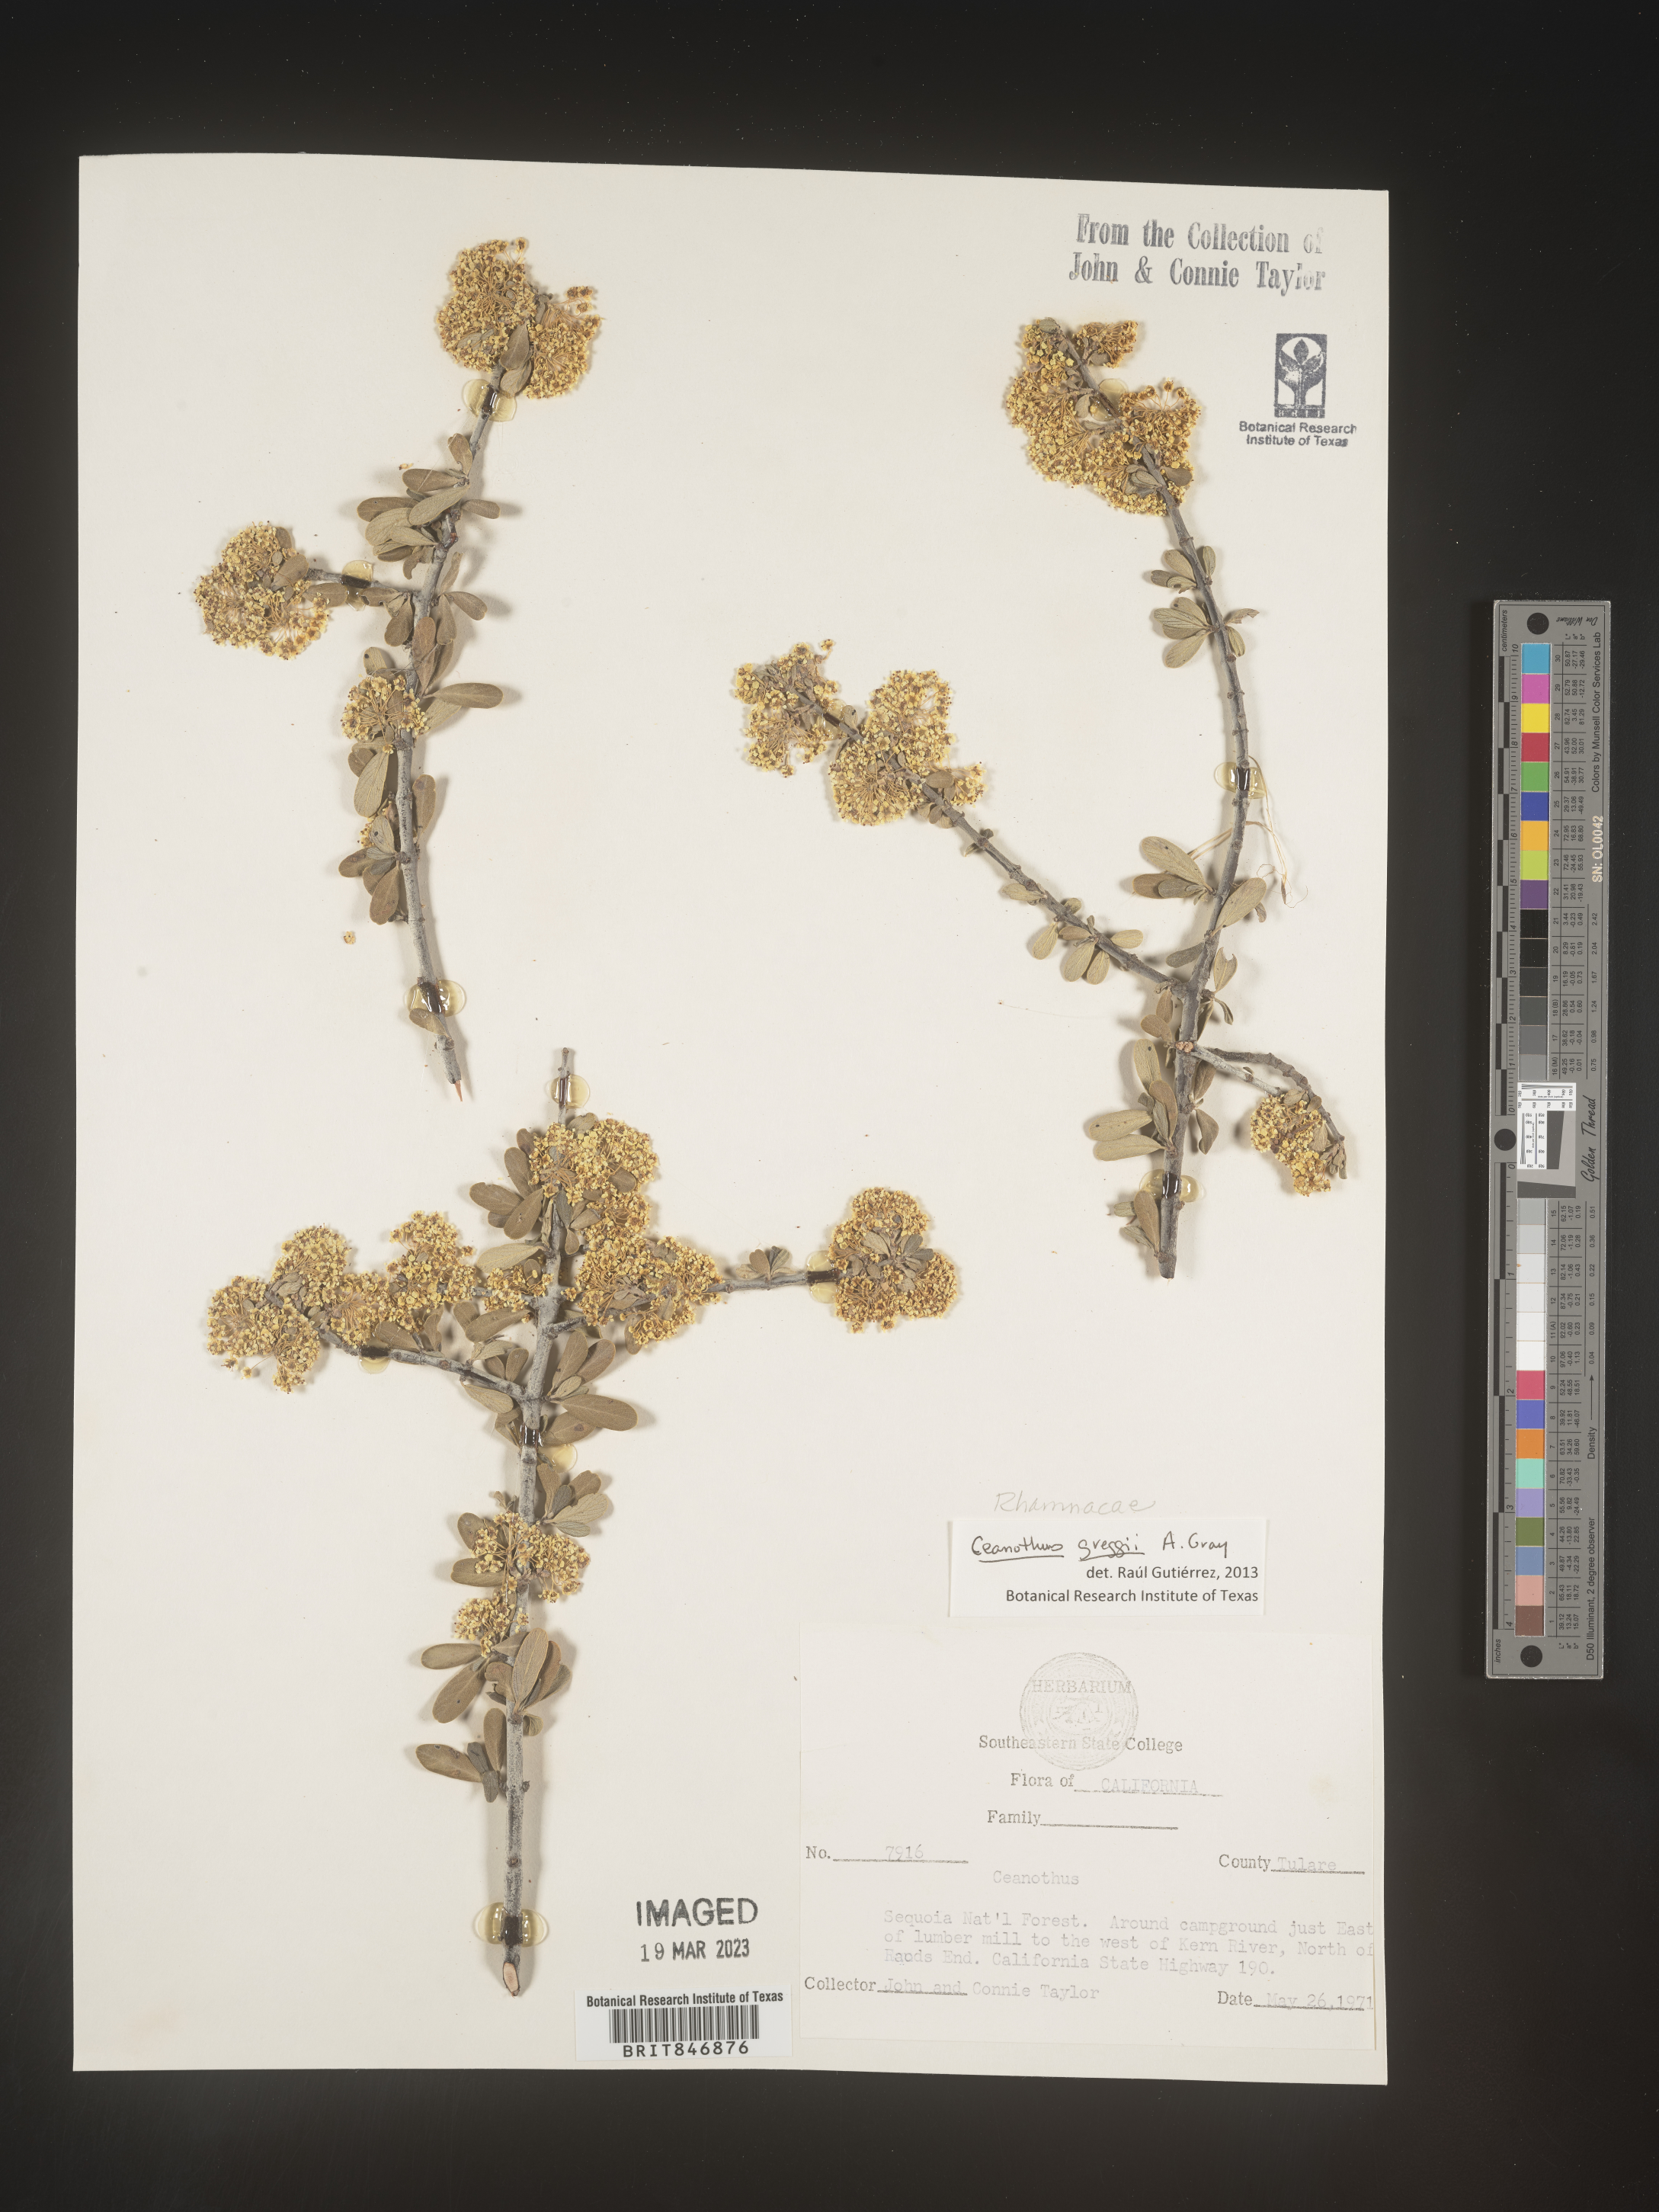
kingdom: Plantae
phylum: Tracheophyta
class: Magnoliopsida
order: Rosales
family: Rhamnaceae
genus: Ceanothus
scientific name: Ceanothus
